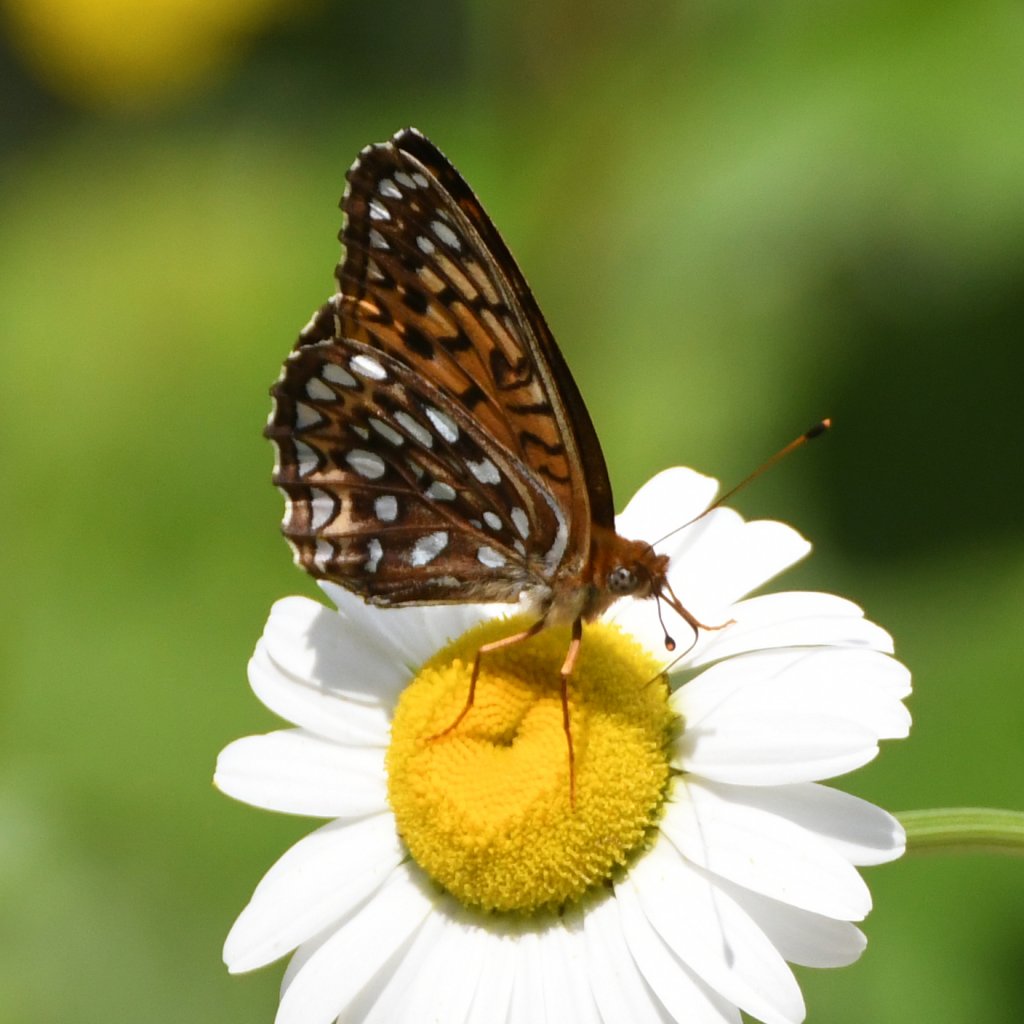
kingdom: Animalia
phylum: Arthropoda
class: Insecta
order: Lepidoptera
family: Nymphalidae
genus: Speyeria
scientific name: Speyeria atlantis
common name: Atlantis Fritillary
